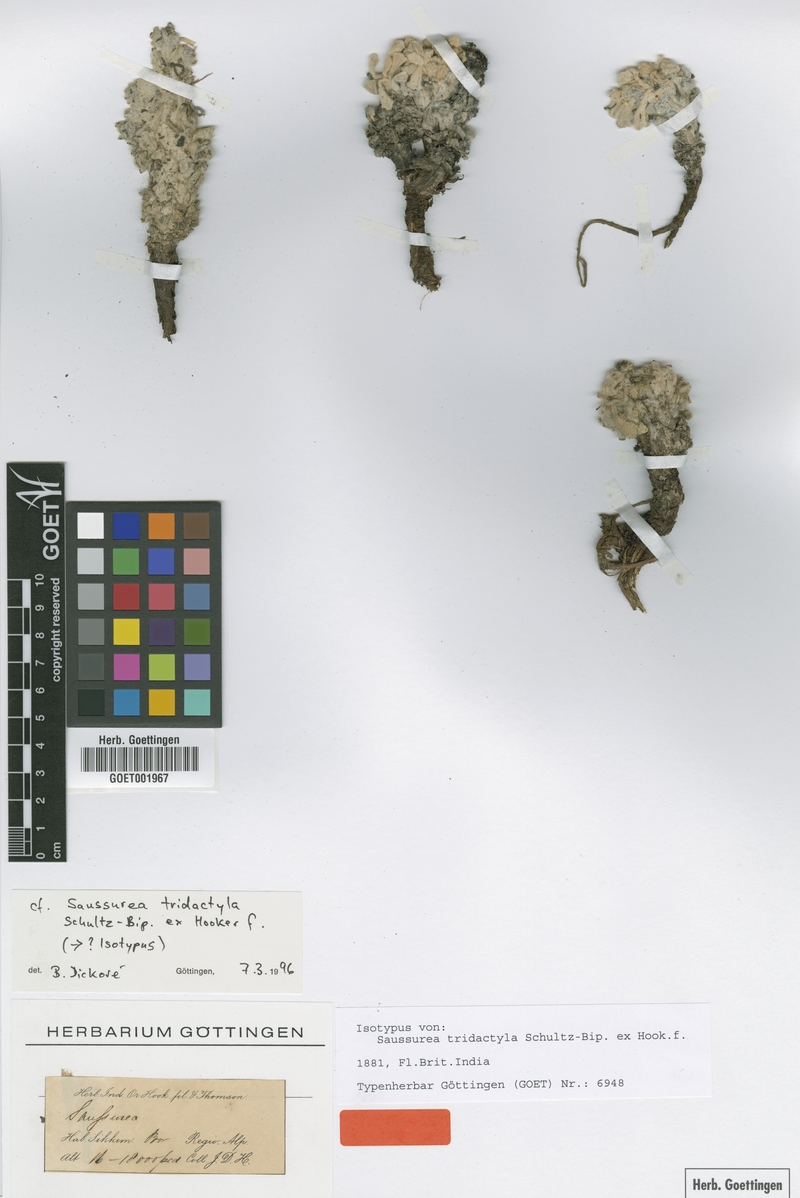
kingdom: Plantae
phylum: Tracheophyta
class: Magnoliopsida
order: Asterales
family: Asteraceae
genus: Saussurea
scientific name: Saussurea tridactyla
